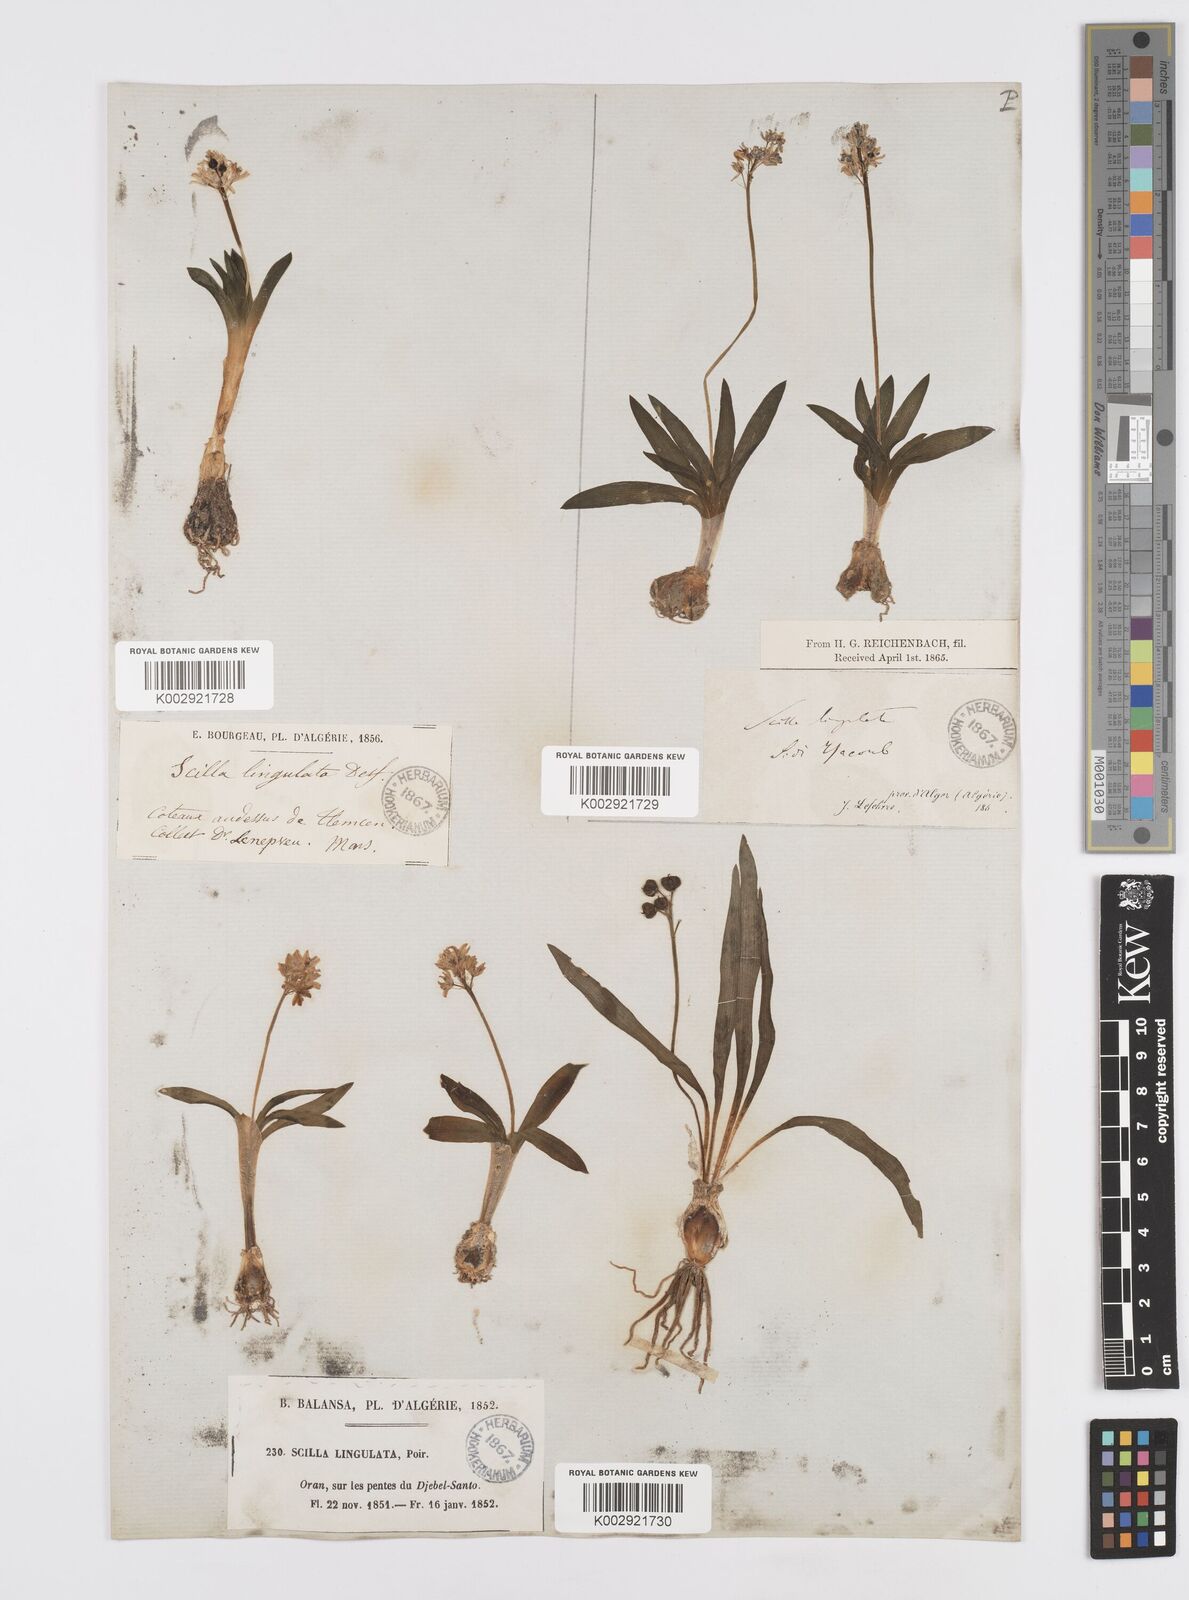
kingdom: Plantae
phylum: Tracheophyta
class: Liliopsida
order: Asparagales
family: Asparagaceae
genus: Hyacinthoides
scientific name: Hyacinthoides lingulata
